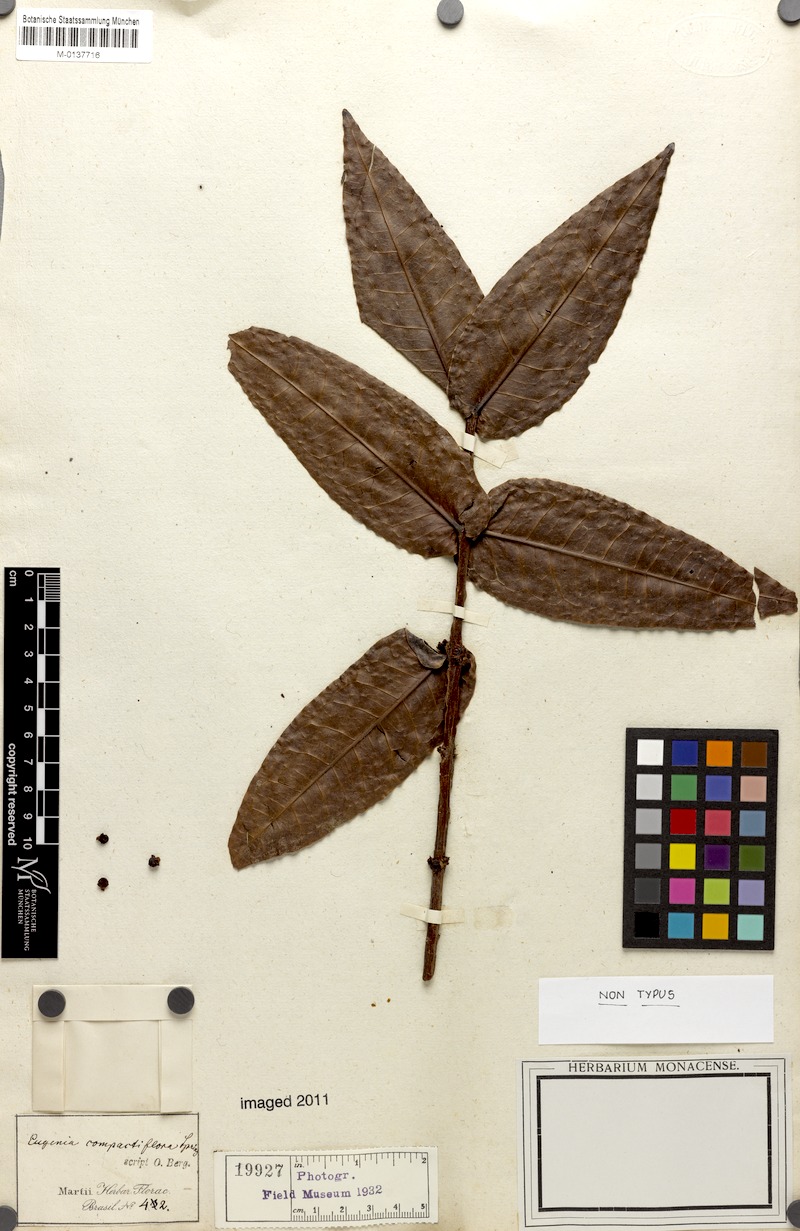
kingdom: Plantae
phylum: Tracheophyta
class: Magnoliopsida
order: Myrtales
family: Myrtaceae
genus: Eugenia
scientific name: Eugenia monosperma
